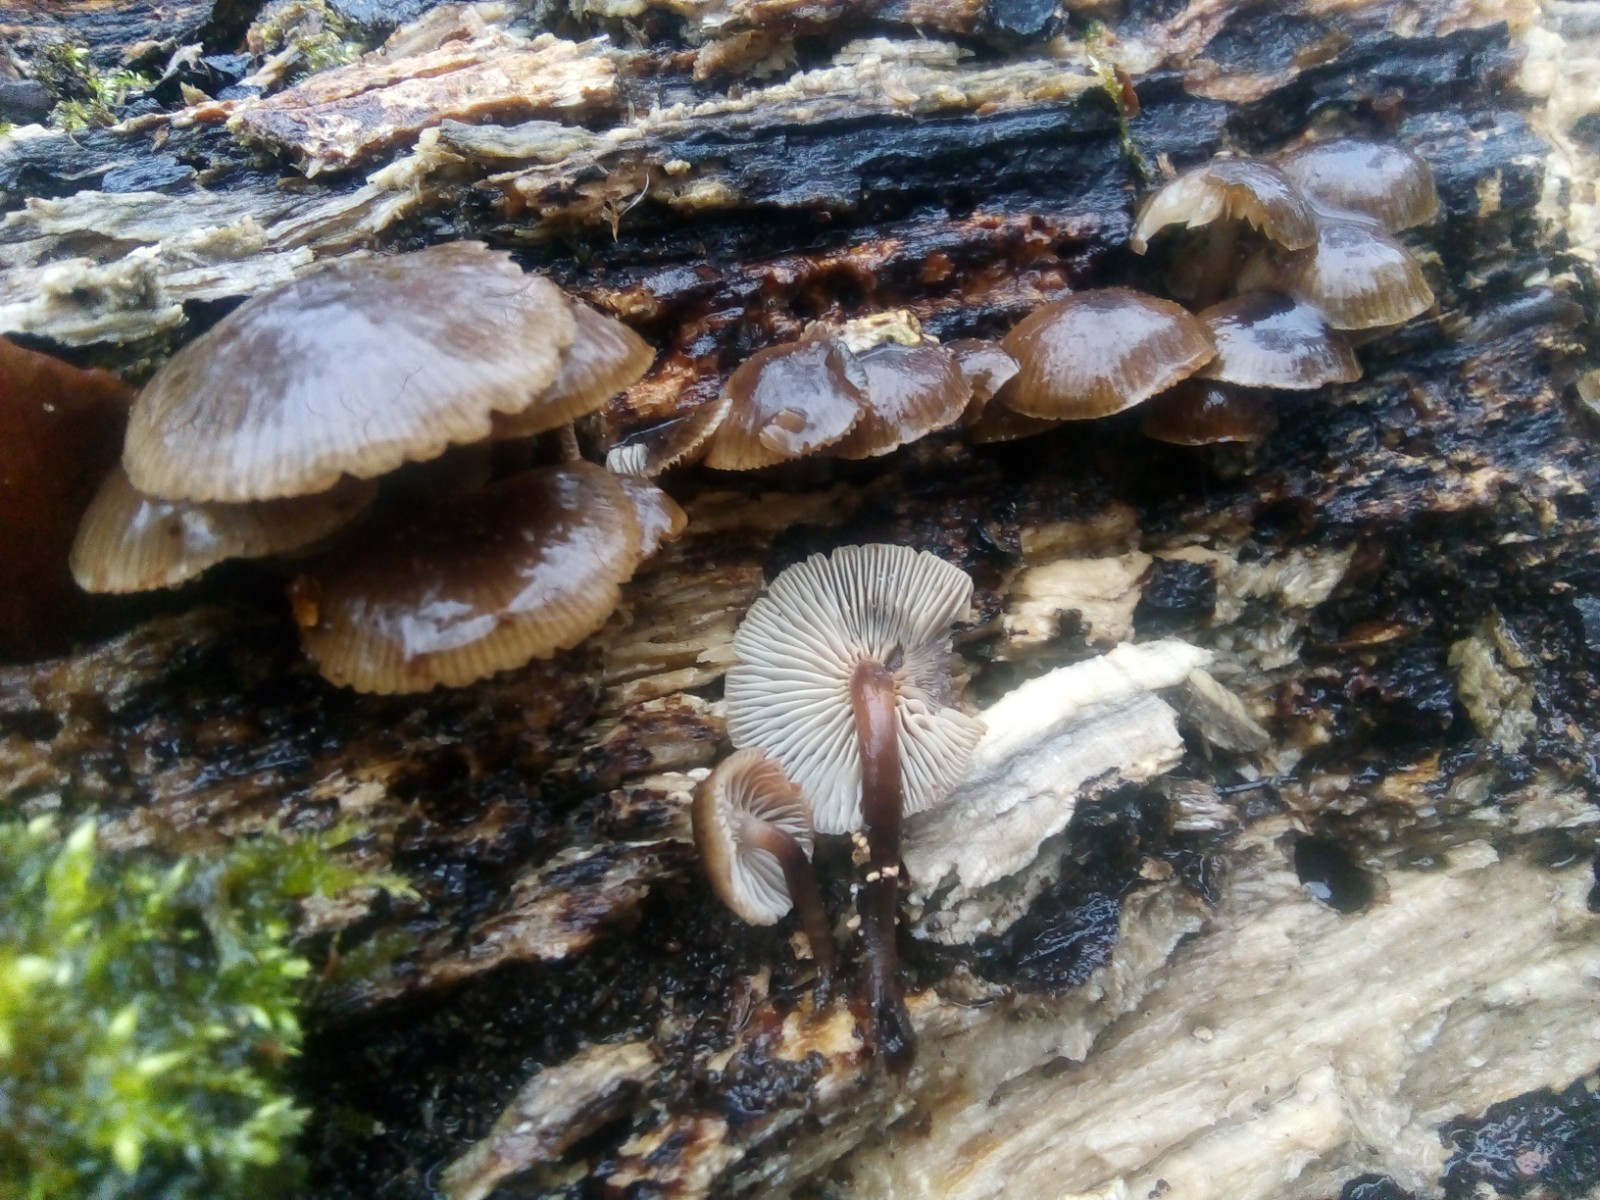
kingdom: Fungi
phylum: Basidiomycota
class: Agaricomycetes
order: Agaricales
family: Mycenaceae
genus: Mycena
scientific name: Mycena tintinnabulum
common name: vinter-huesvamp
